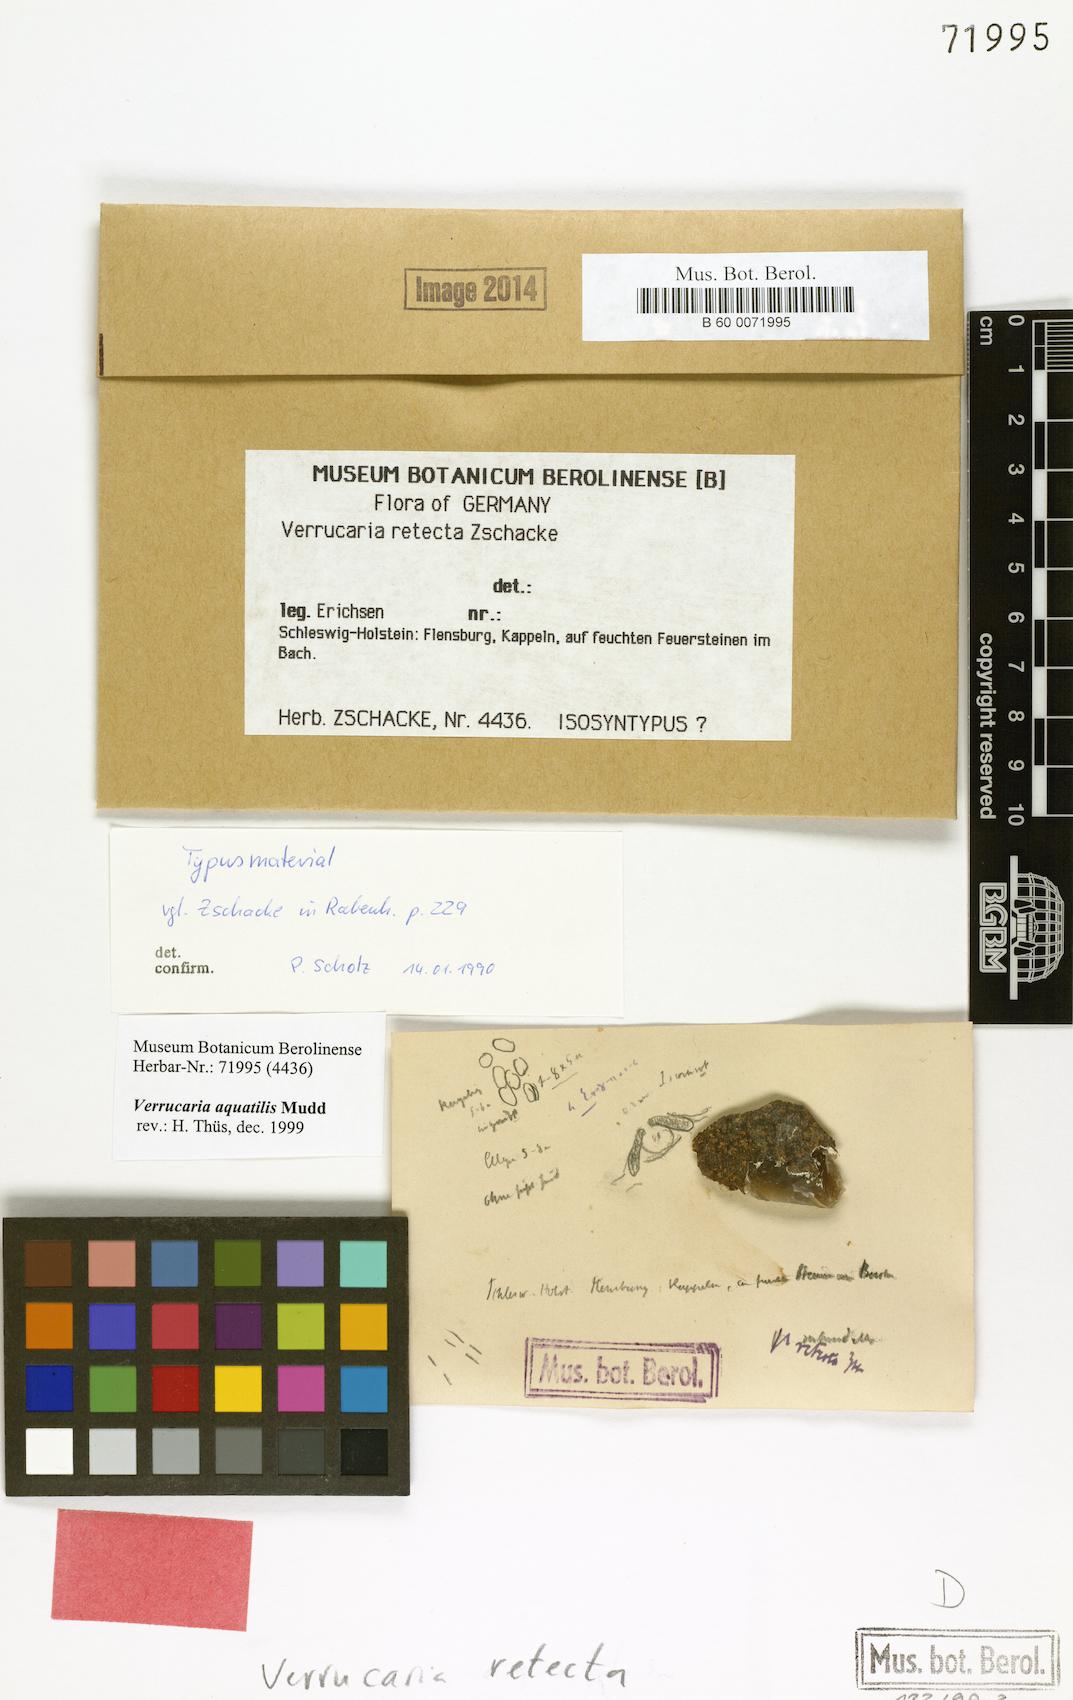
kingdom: Fungi
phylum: Ascomycota
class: Eurotiomycetes
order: Verrucariales
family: Verrucariaceae
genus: Verrucaria
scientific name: Verrucaria aquatilis
